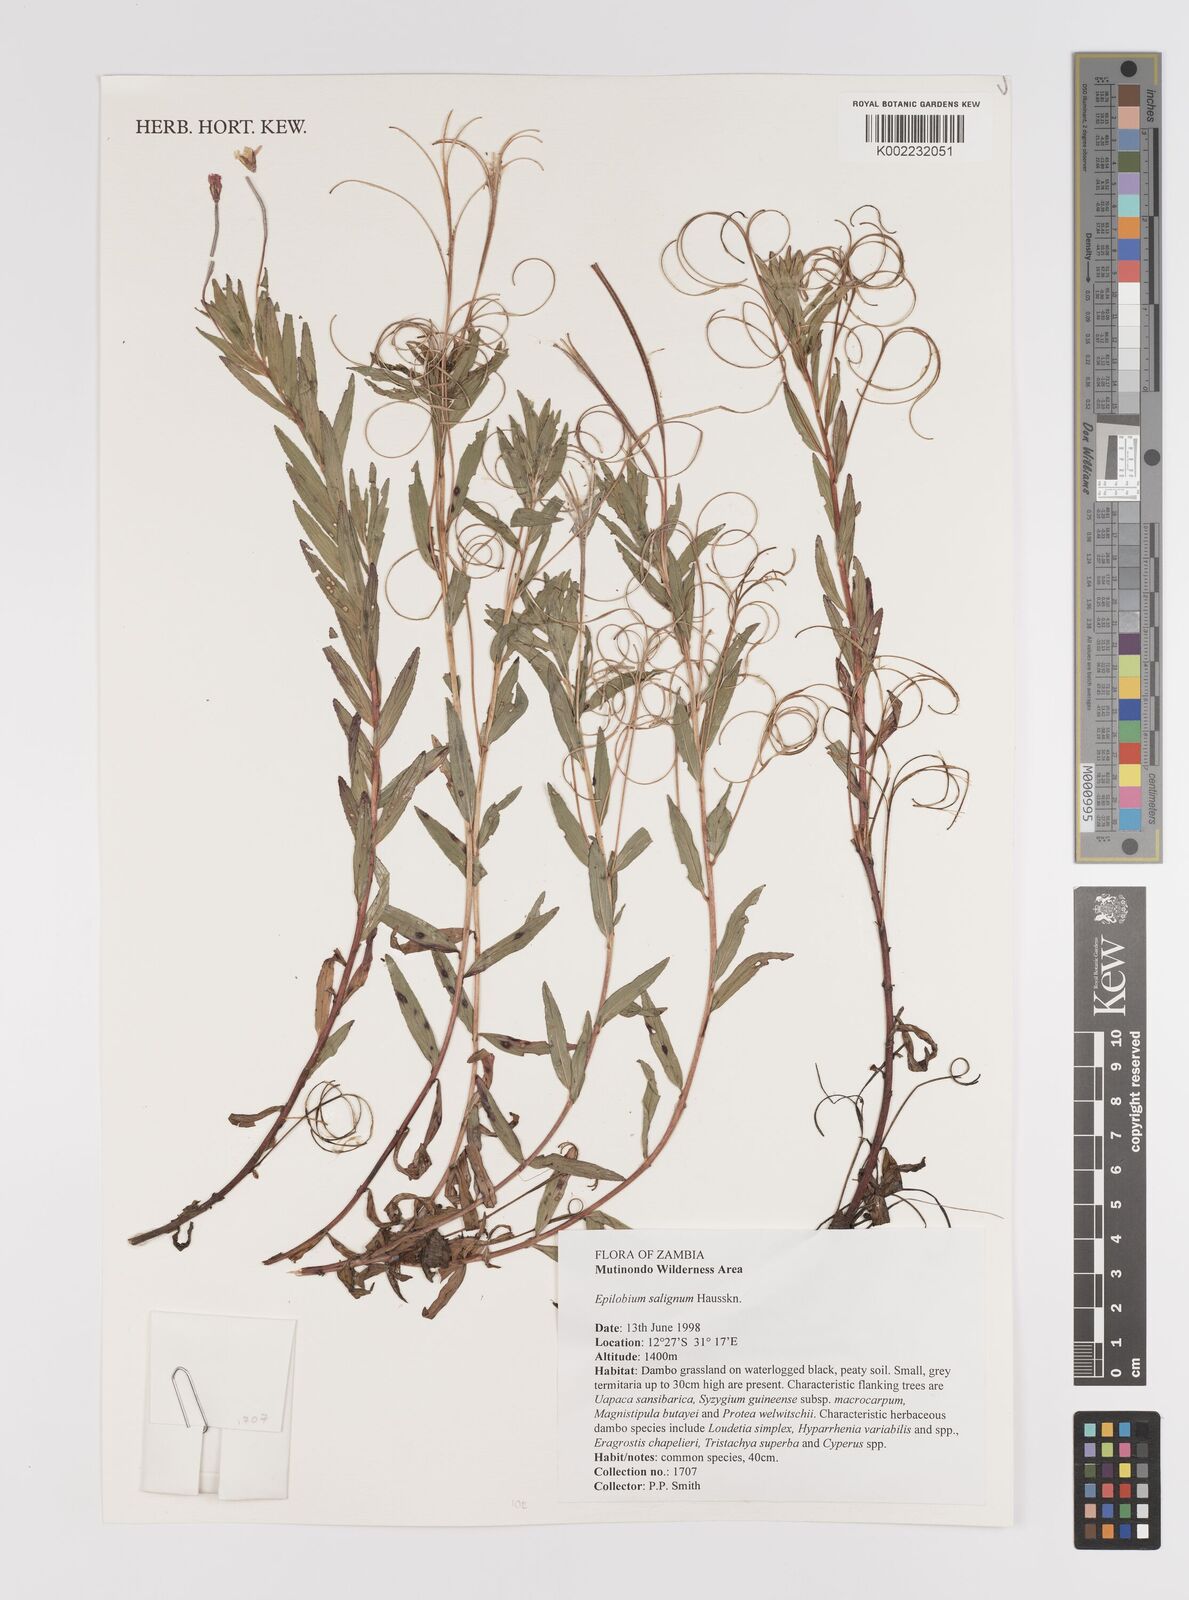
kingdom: Plantae
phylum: Tracheophyta
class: Magnoliopsida
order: Myrtales
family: Onagraceae
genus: Epilobium
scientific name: Epilobium salignum
